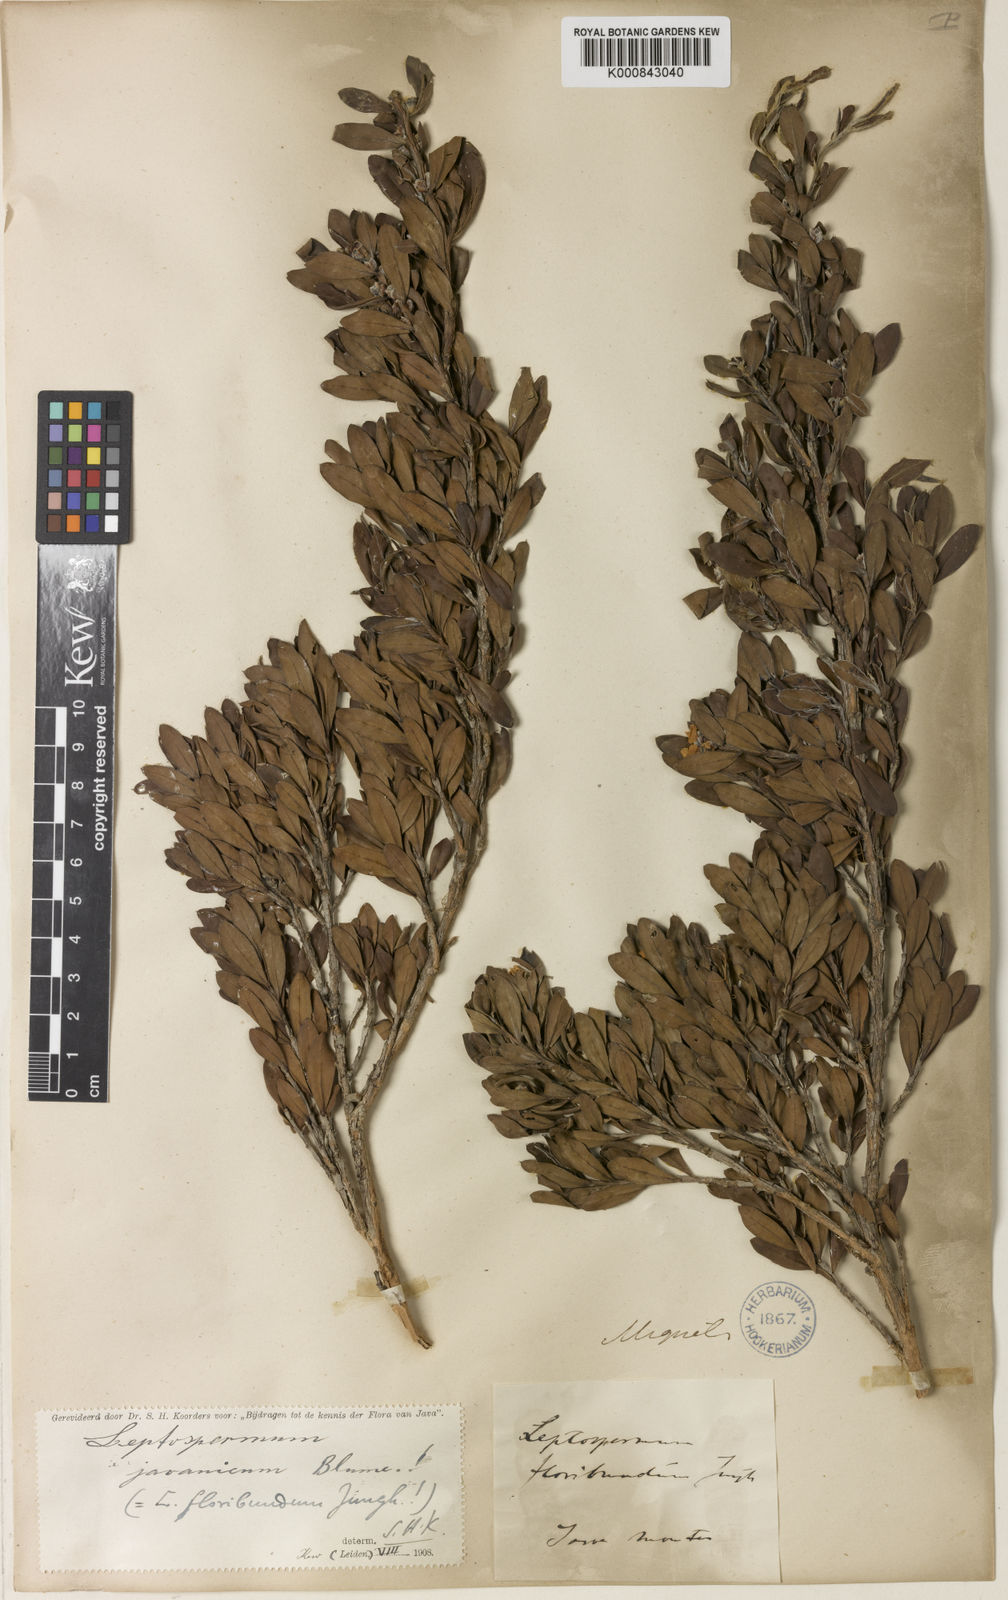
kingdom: Plantae
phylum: Tracheophyta
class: Magnoliopsida
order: Myrtales
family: Myrtaceae
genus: Leptospermum
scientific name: Leptospermum javanicum
